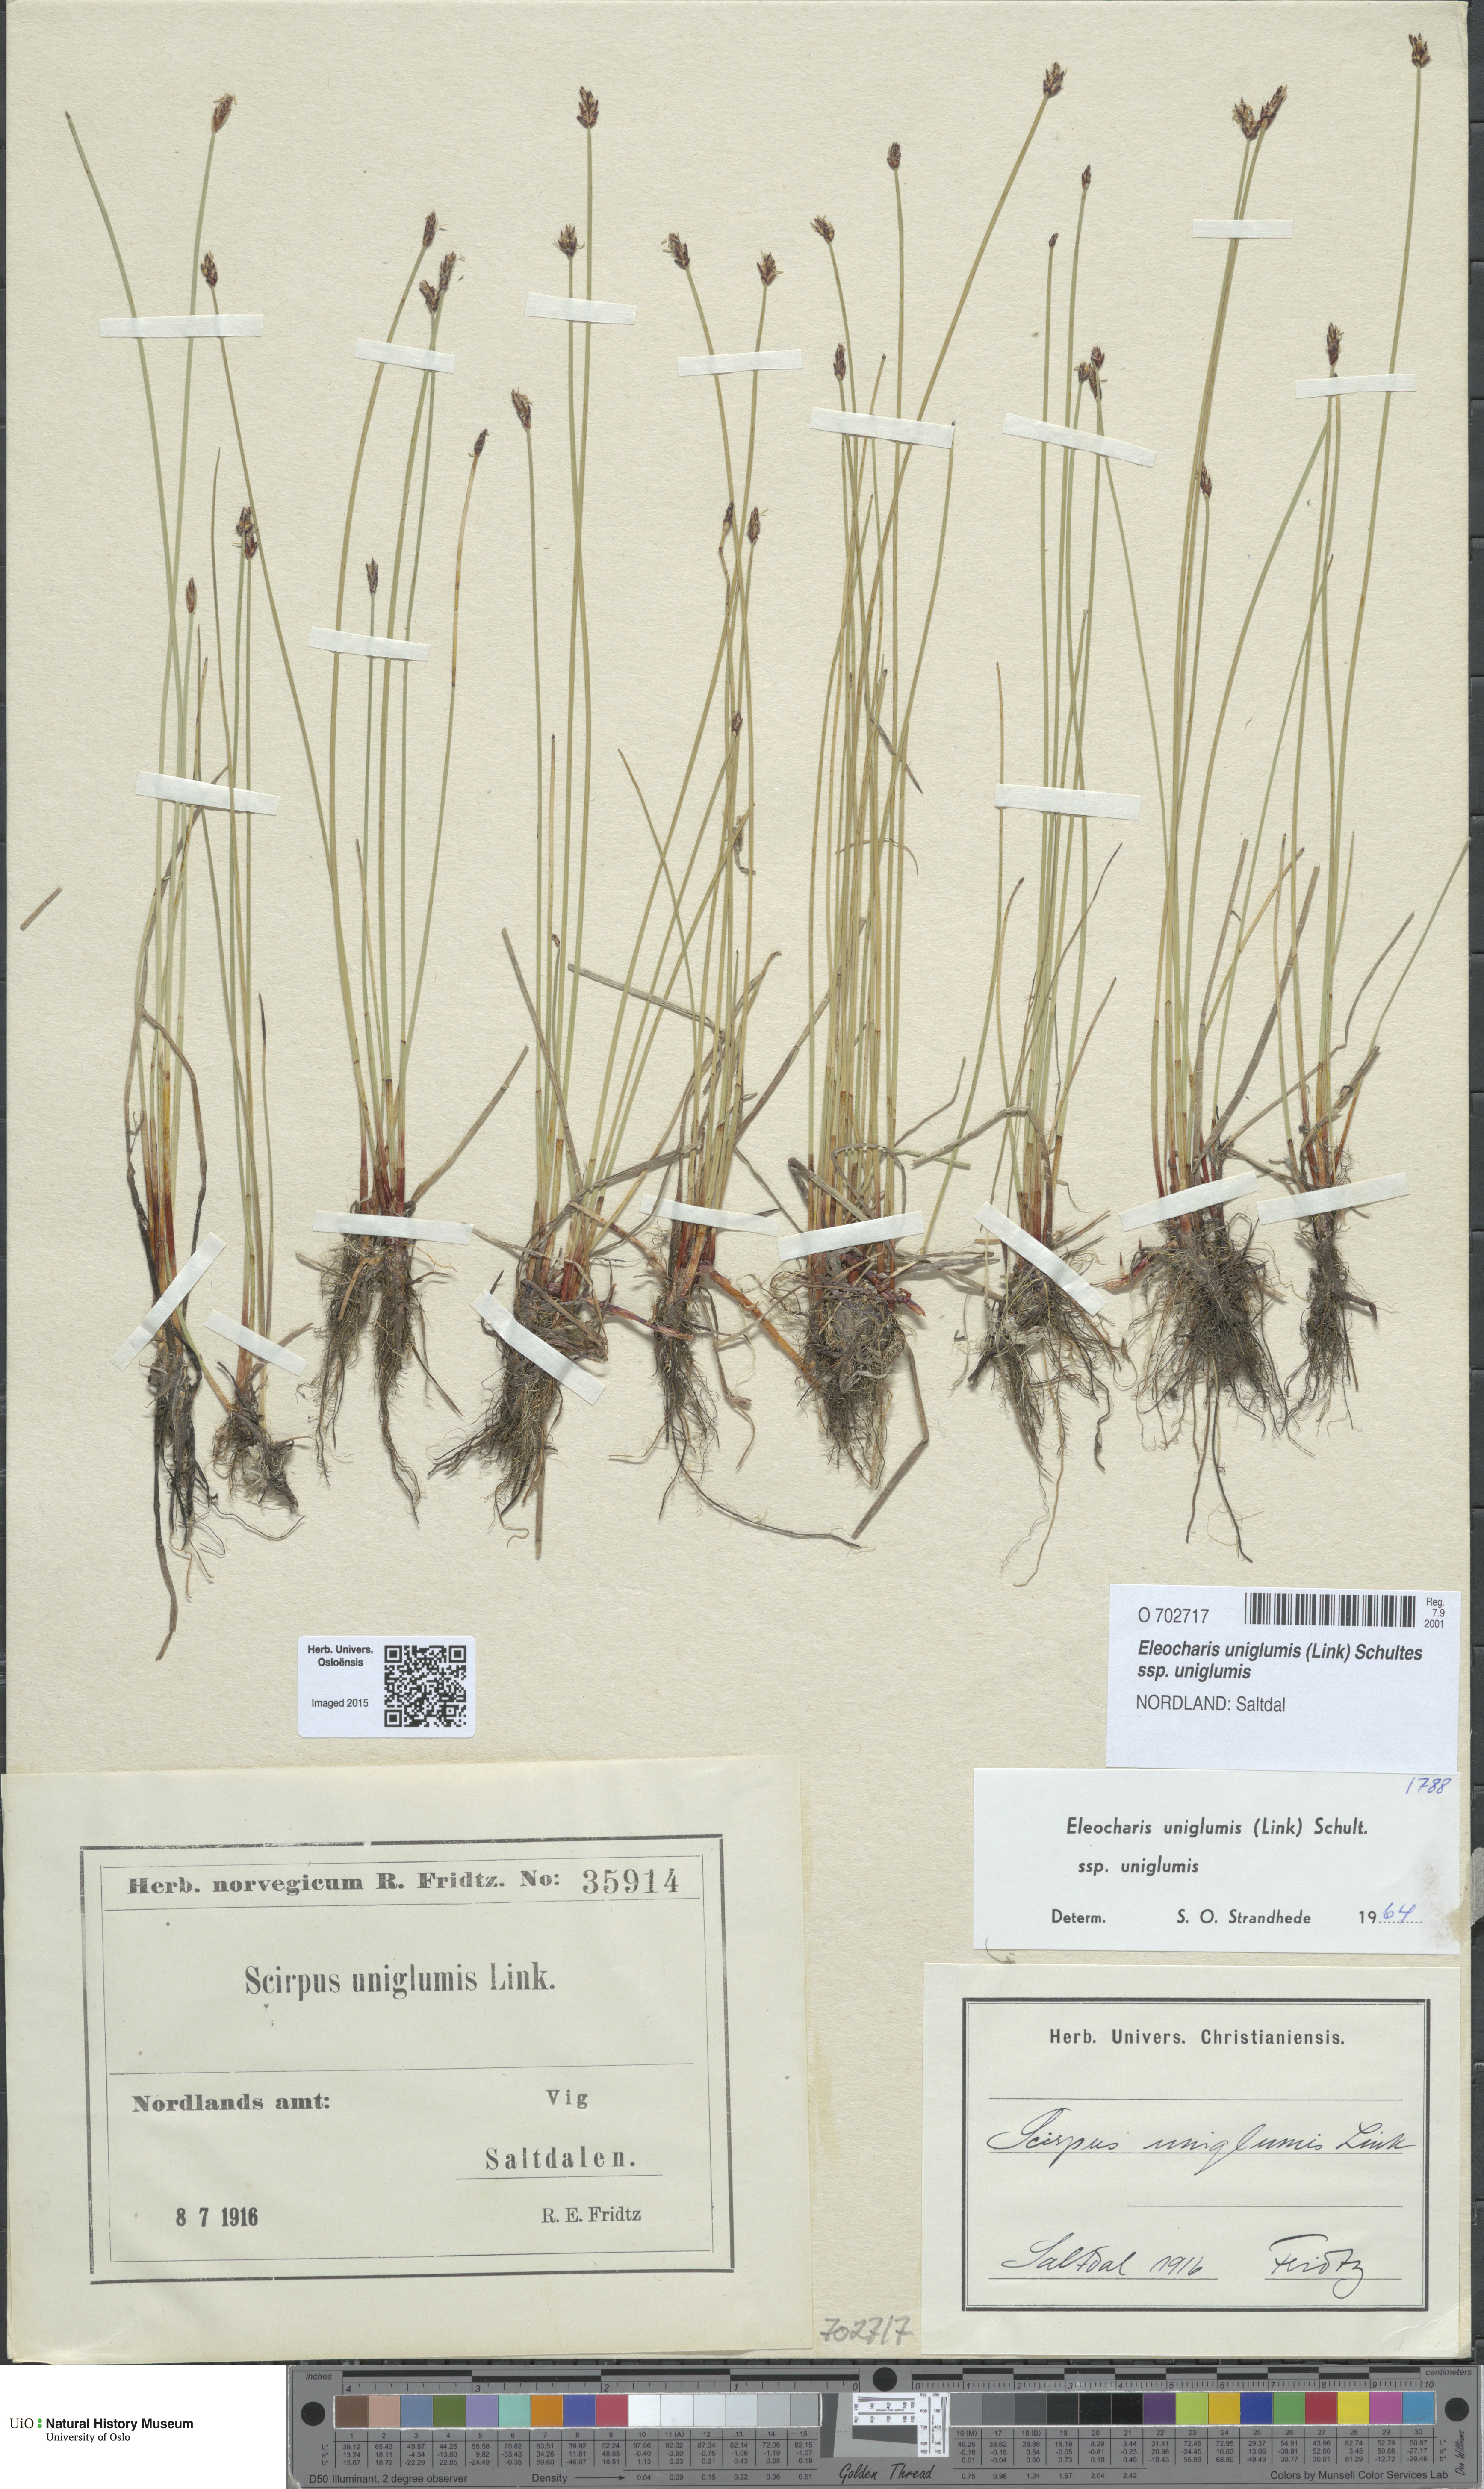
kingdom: Plantae
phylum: Tracheophyta
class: Liliopsida
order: Poales
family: Cyperaceae
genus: Eleocharis
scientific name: Eleocharis uniglumis
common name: Slender spike-rush
